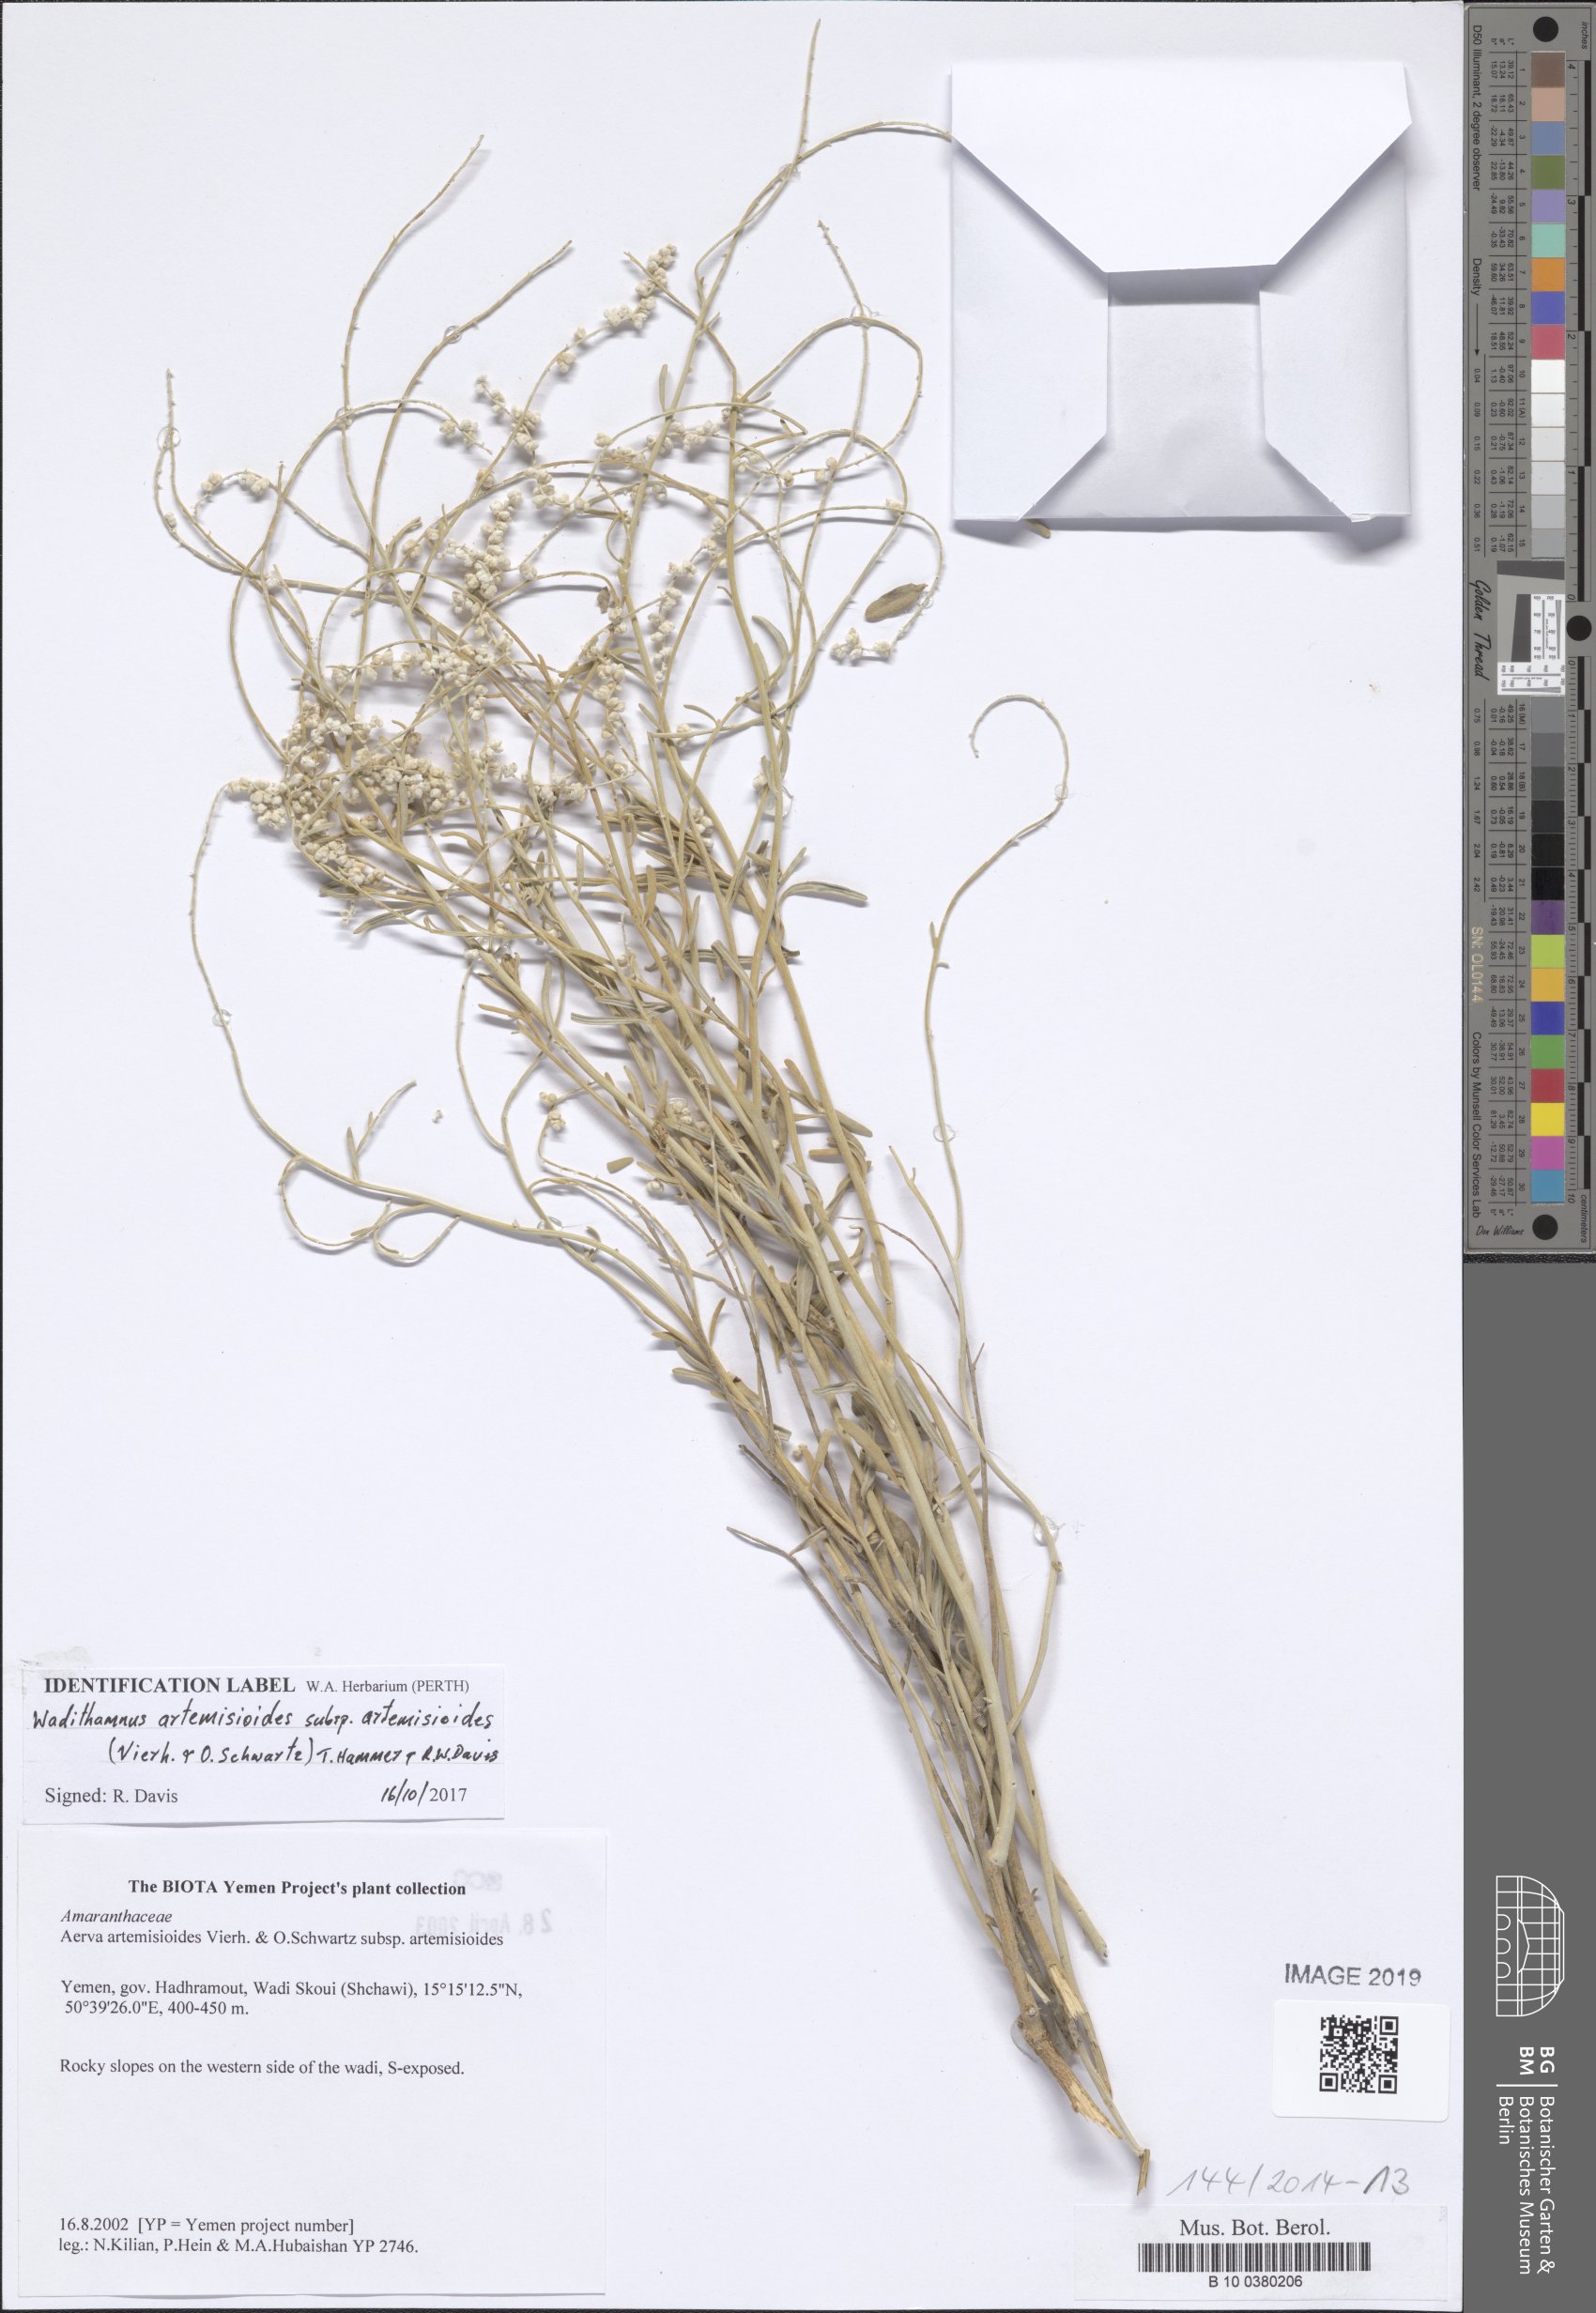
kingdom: Plantae
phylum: Tracheophyta
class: Magnoliopsida
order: Caryophyllales
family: Amaranthaceae
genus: Wadithamnus
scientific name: Wadithamnus artemisioides
